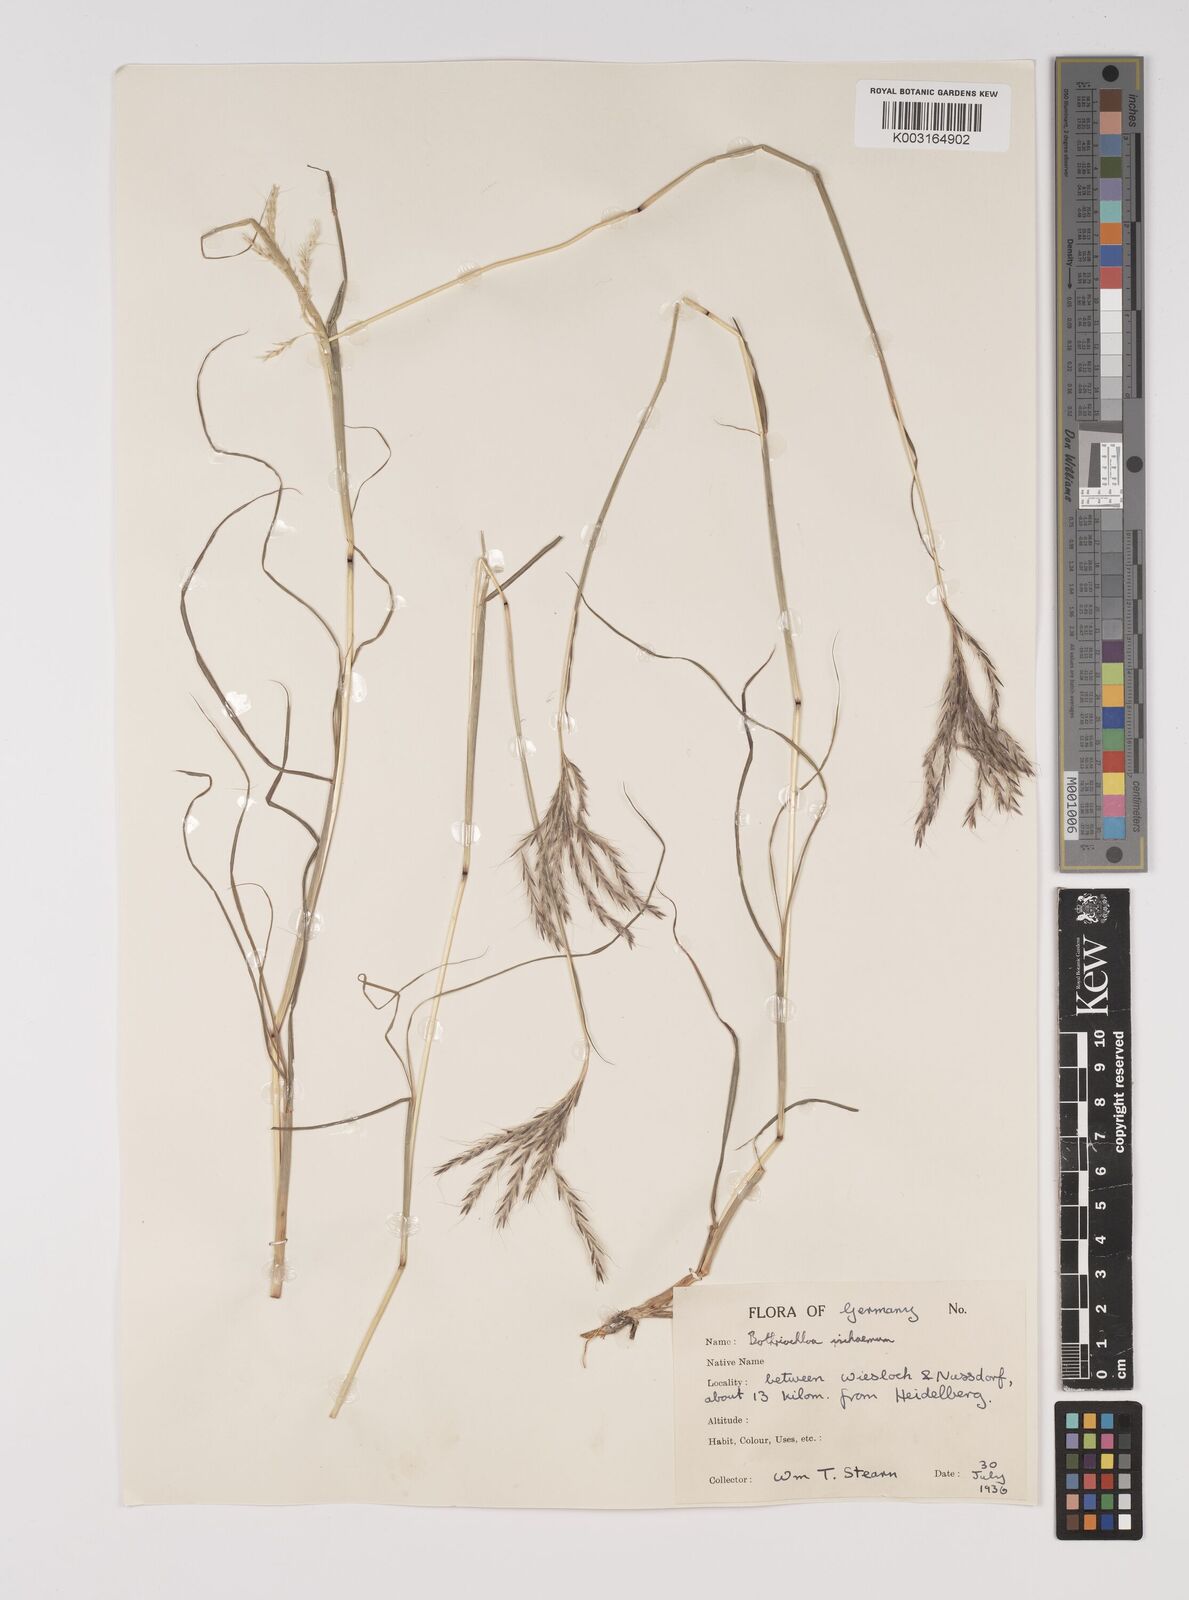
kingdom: Plantae
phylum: Tracheophyta
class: Liliopsida
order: Poales
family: Poaceae
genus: Bothriochloa
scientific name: Bothriochloa ischaemum
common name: Yellow bluestem
